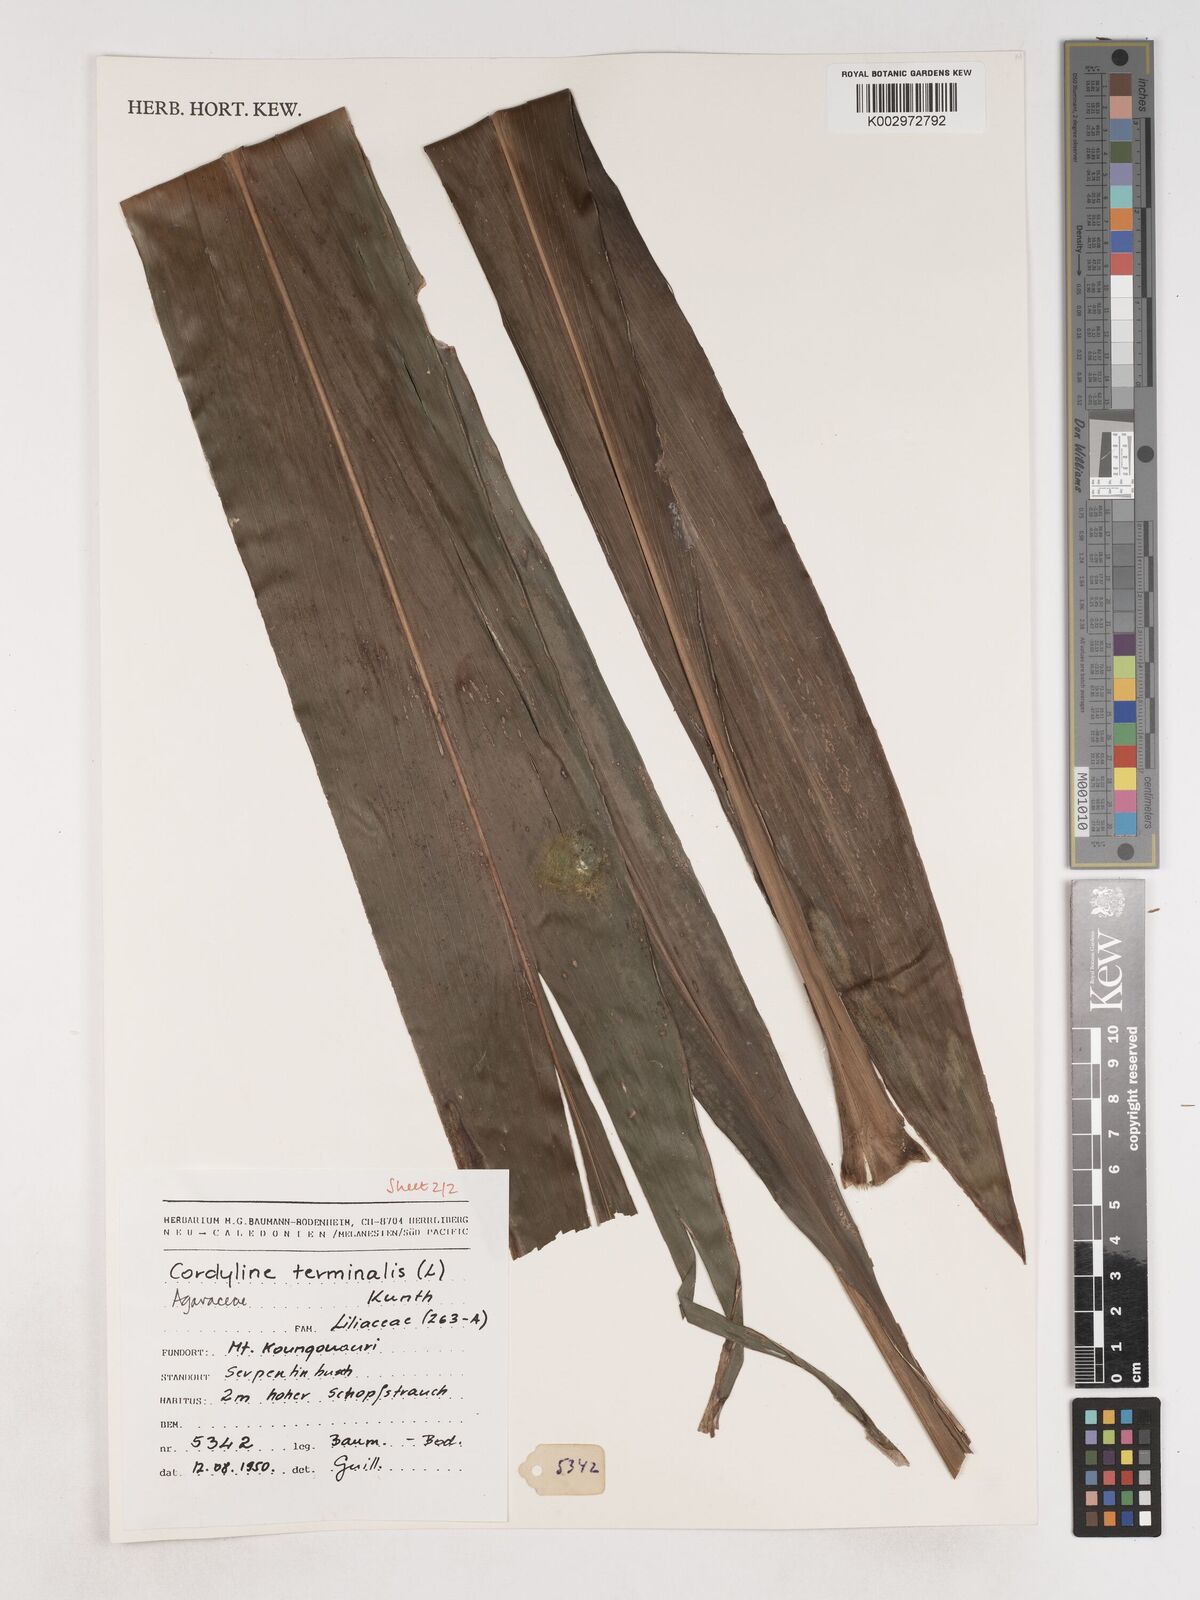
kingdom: Plantae
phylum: Tracheophyta
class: Liliopsida
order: Asparagales
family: Asparagaceae
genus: Cordyline
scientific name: Cordyline fruticosa
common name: Good-luck-plant
